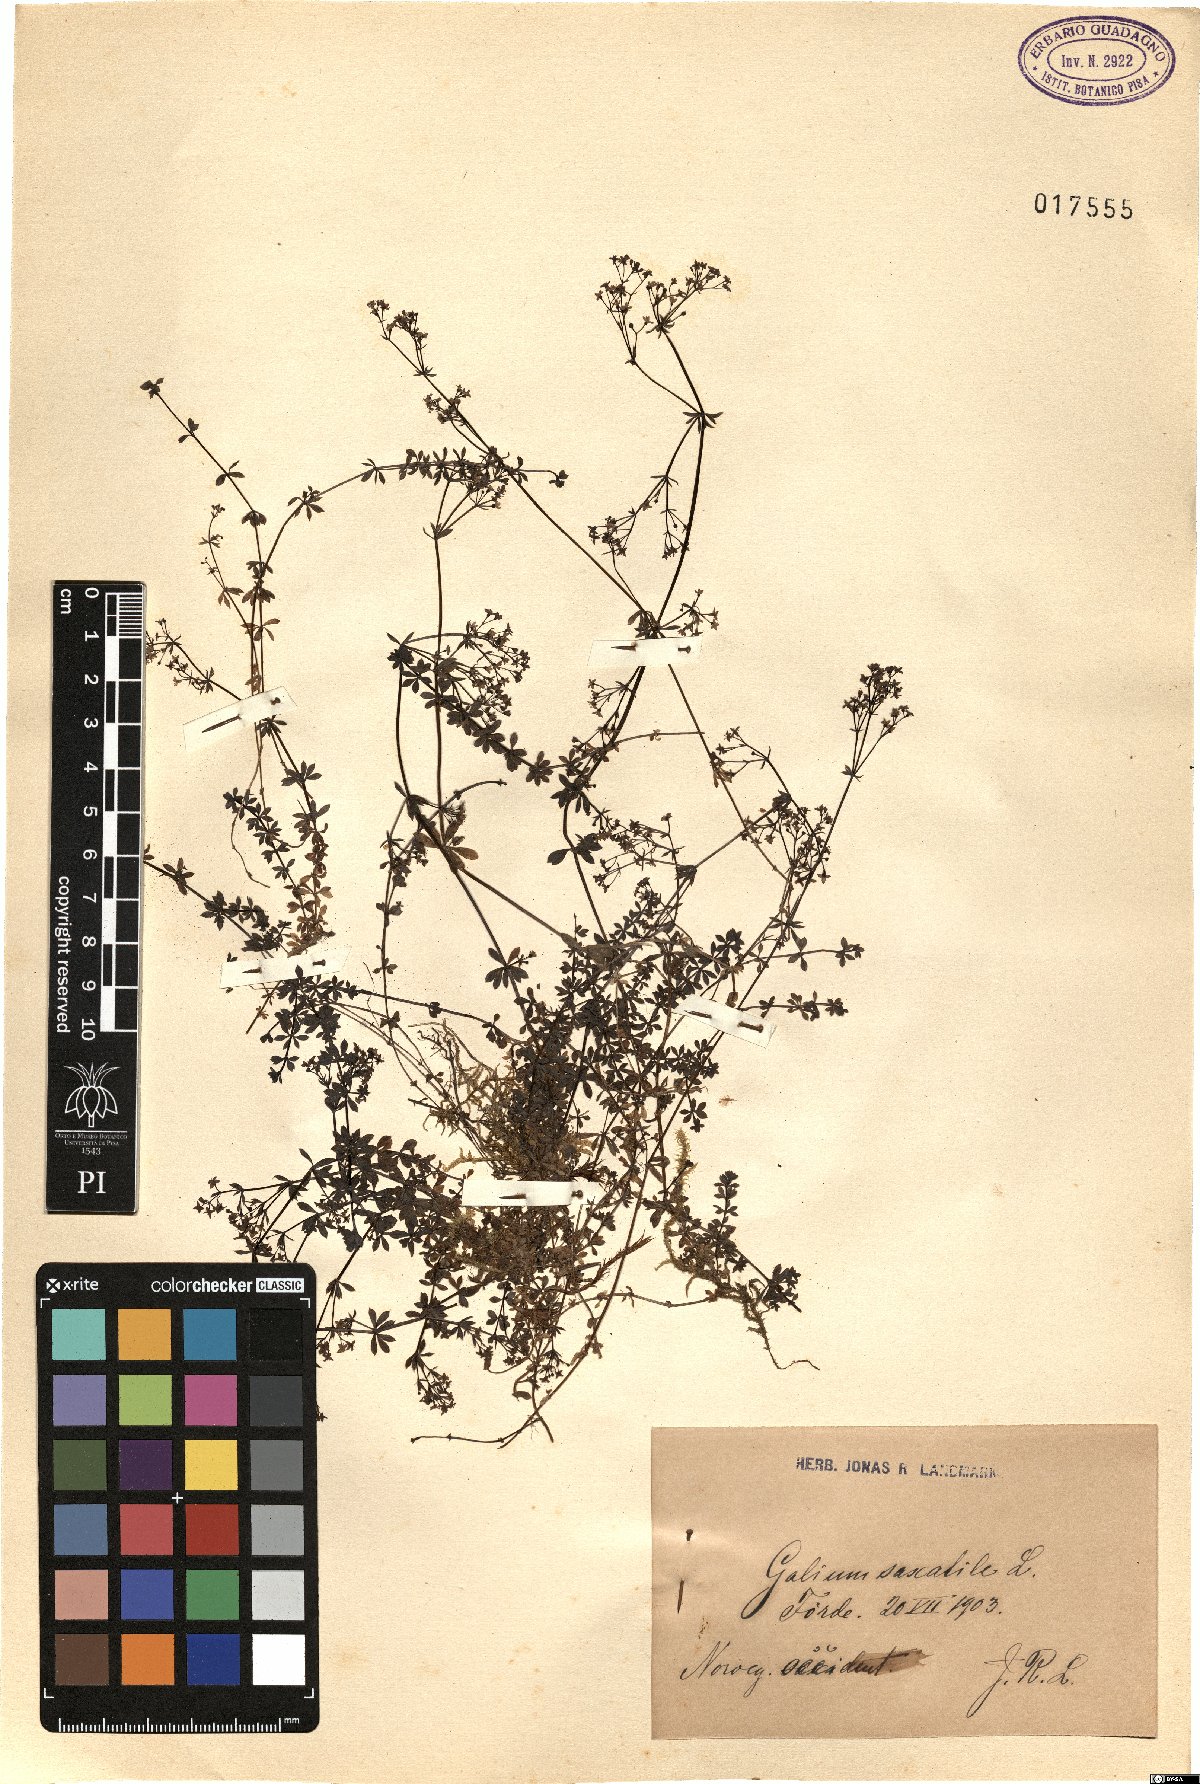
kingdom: Plantae
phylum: Tracheophyta
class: Magnoliopsida
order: Gentianales
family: Rubiaceae
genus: Galium
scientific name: Galium saxatile
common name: Heath bedstraw
